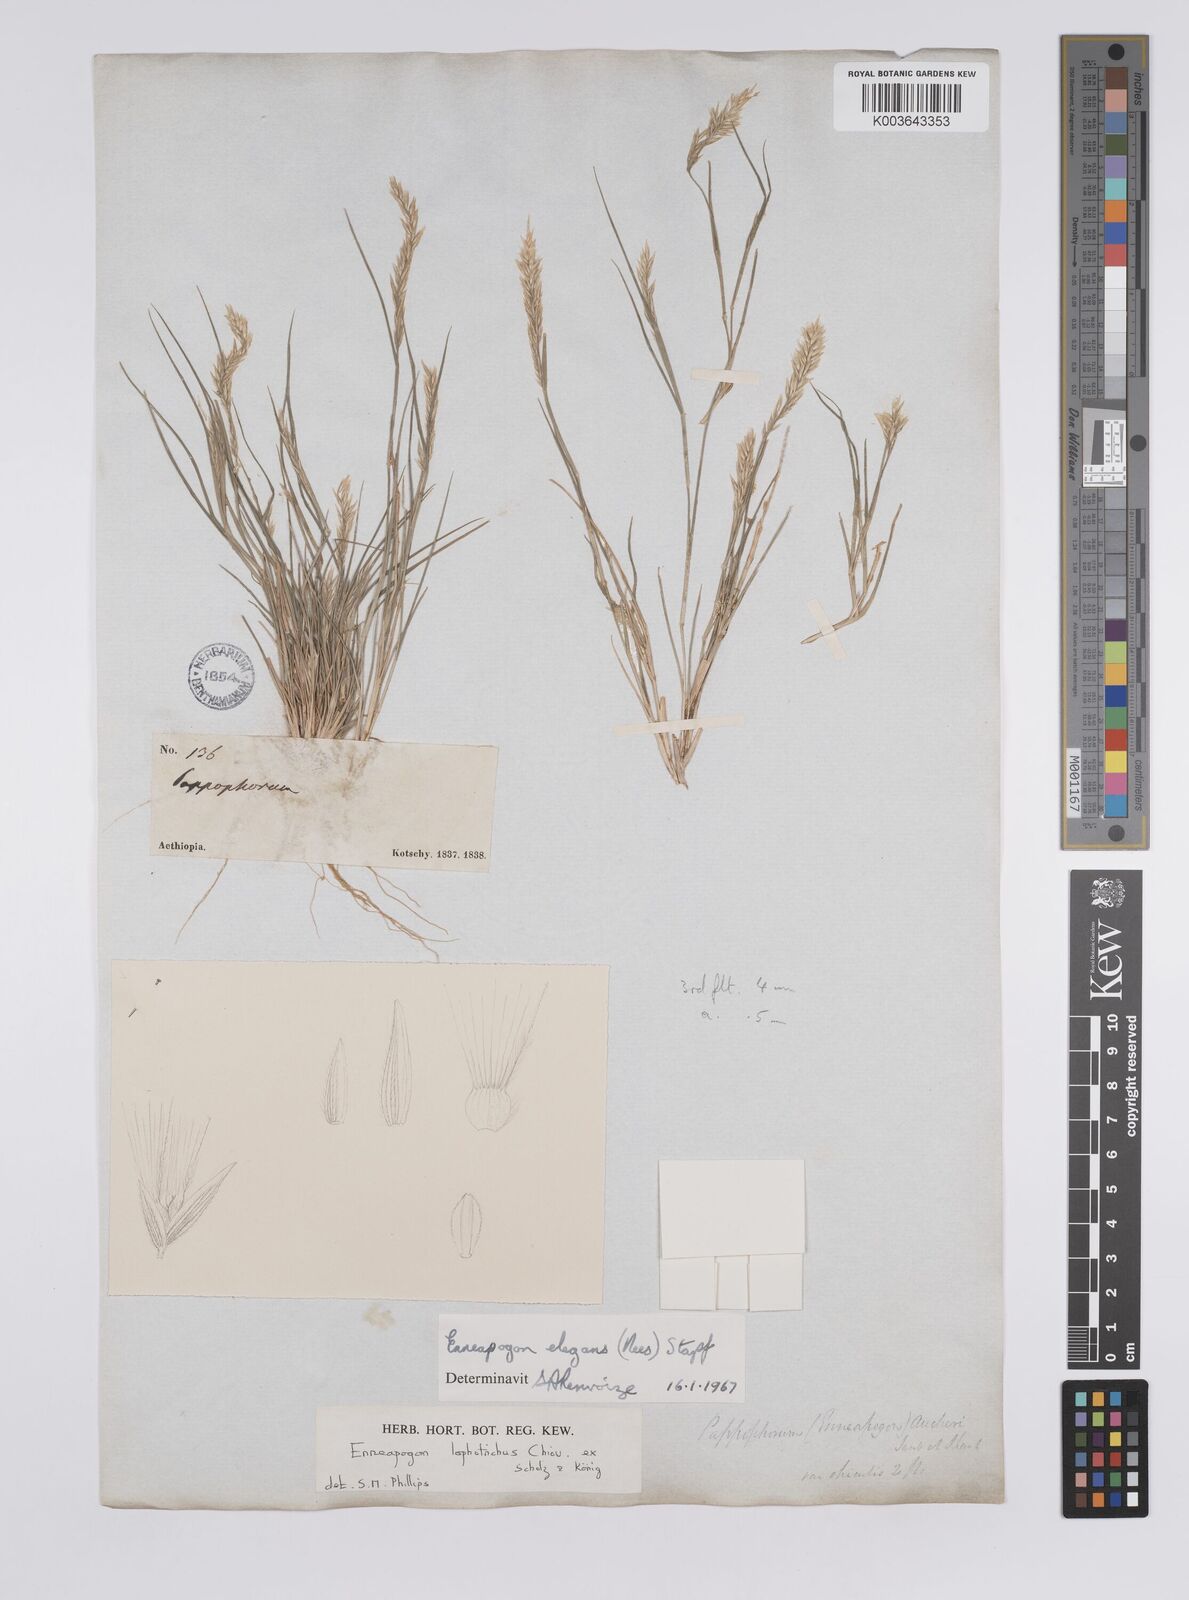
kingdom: Plantae
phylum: Tracheophyta
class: Liliopsida
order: Poales
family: Poaceae
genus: Enneapogon
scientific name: Enneapogon lophotrichus
